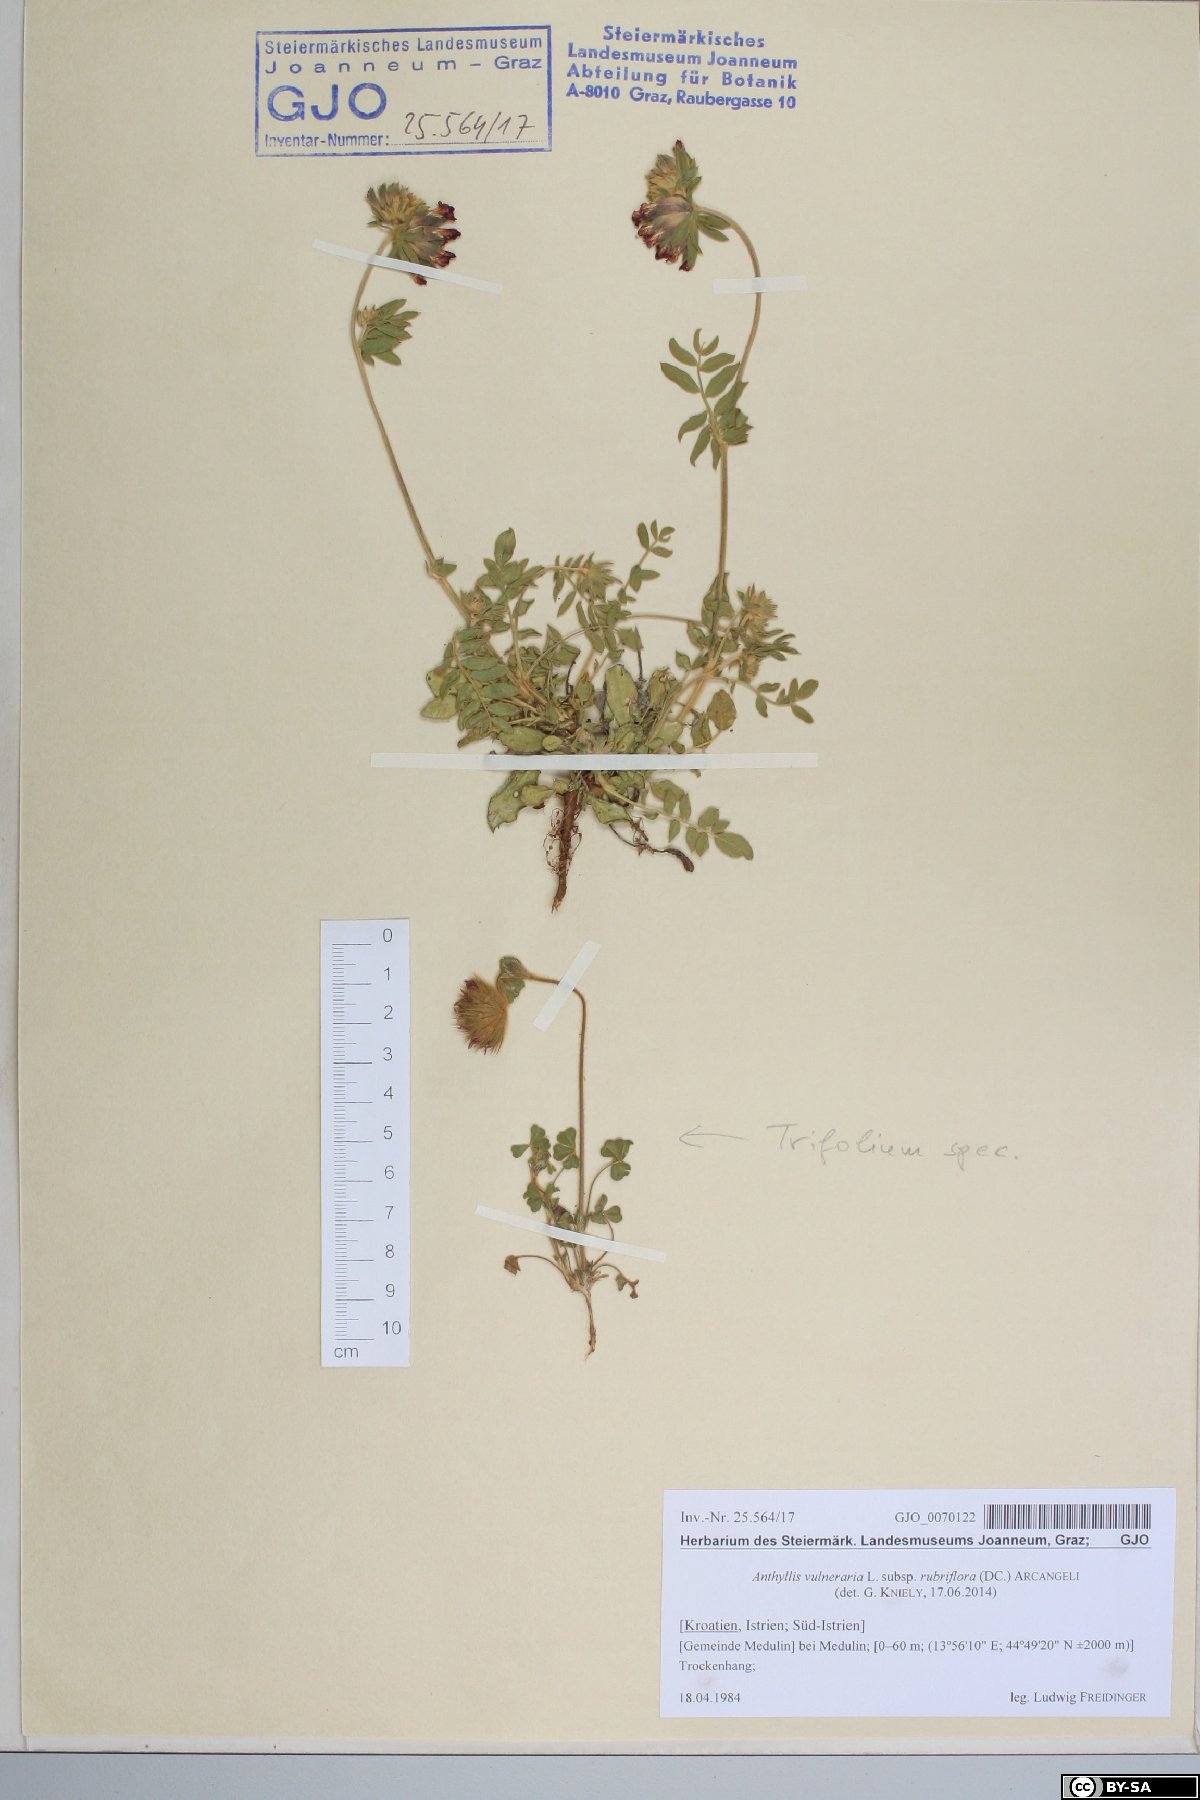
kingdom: Plantae
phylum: Tracheophyta
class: Magnoliopsida
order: Fabales
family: Fabaceae
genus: Anthyllis
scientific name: Anthyllis vulneraria
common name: Kidney vetch
